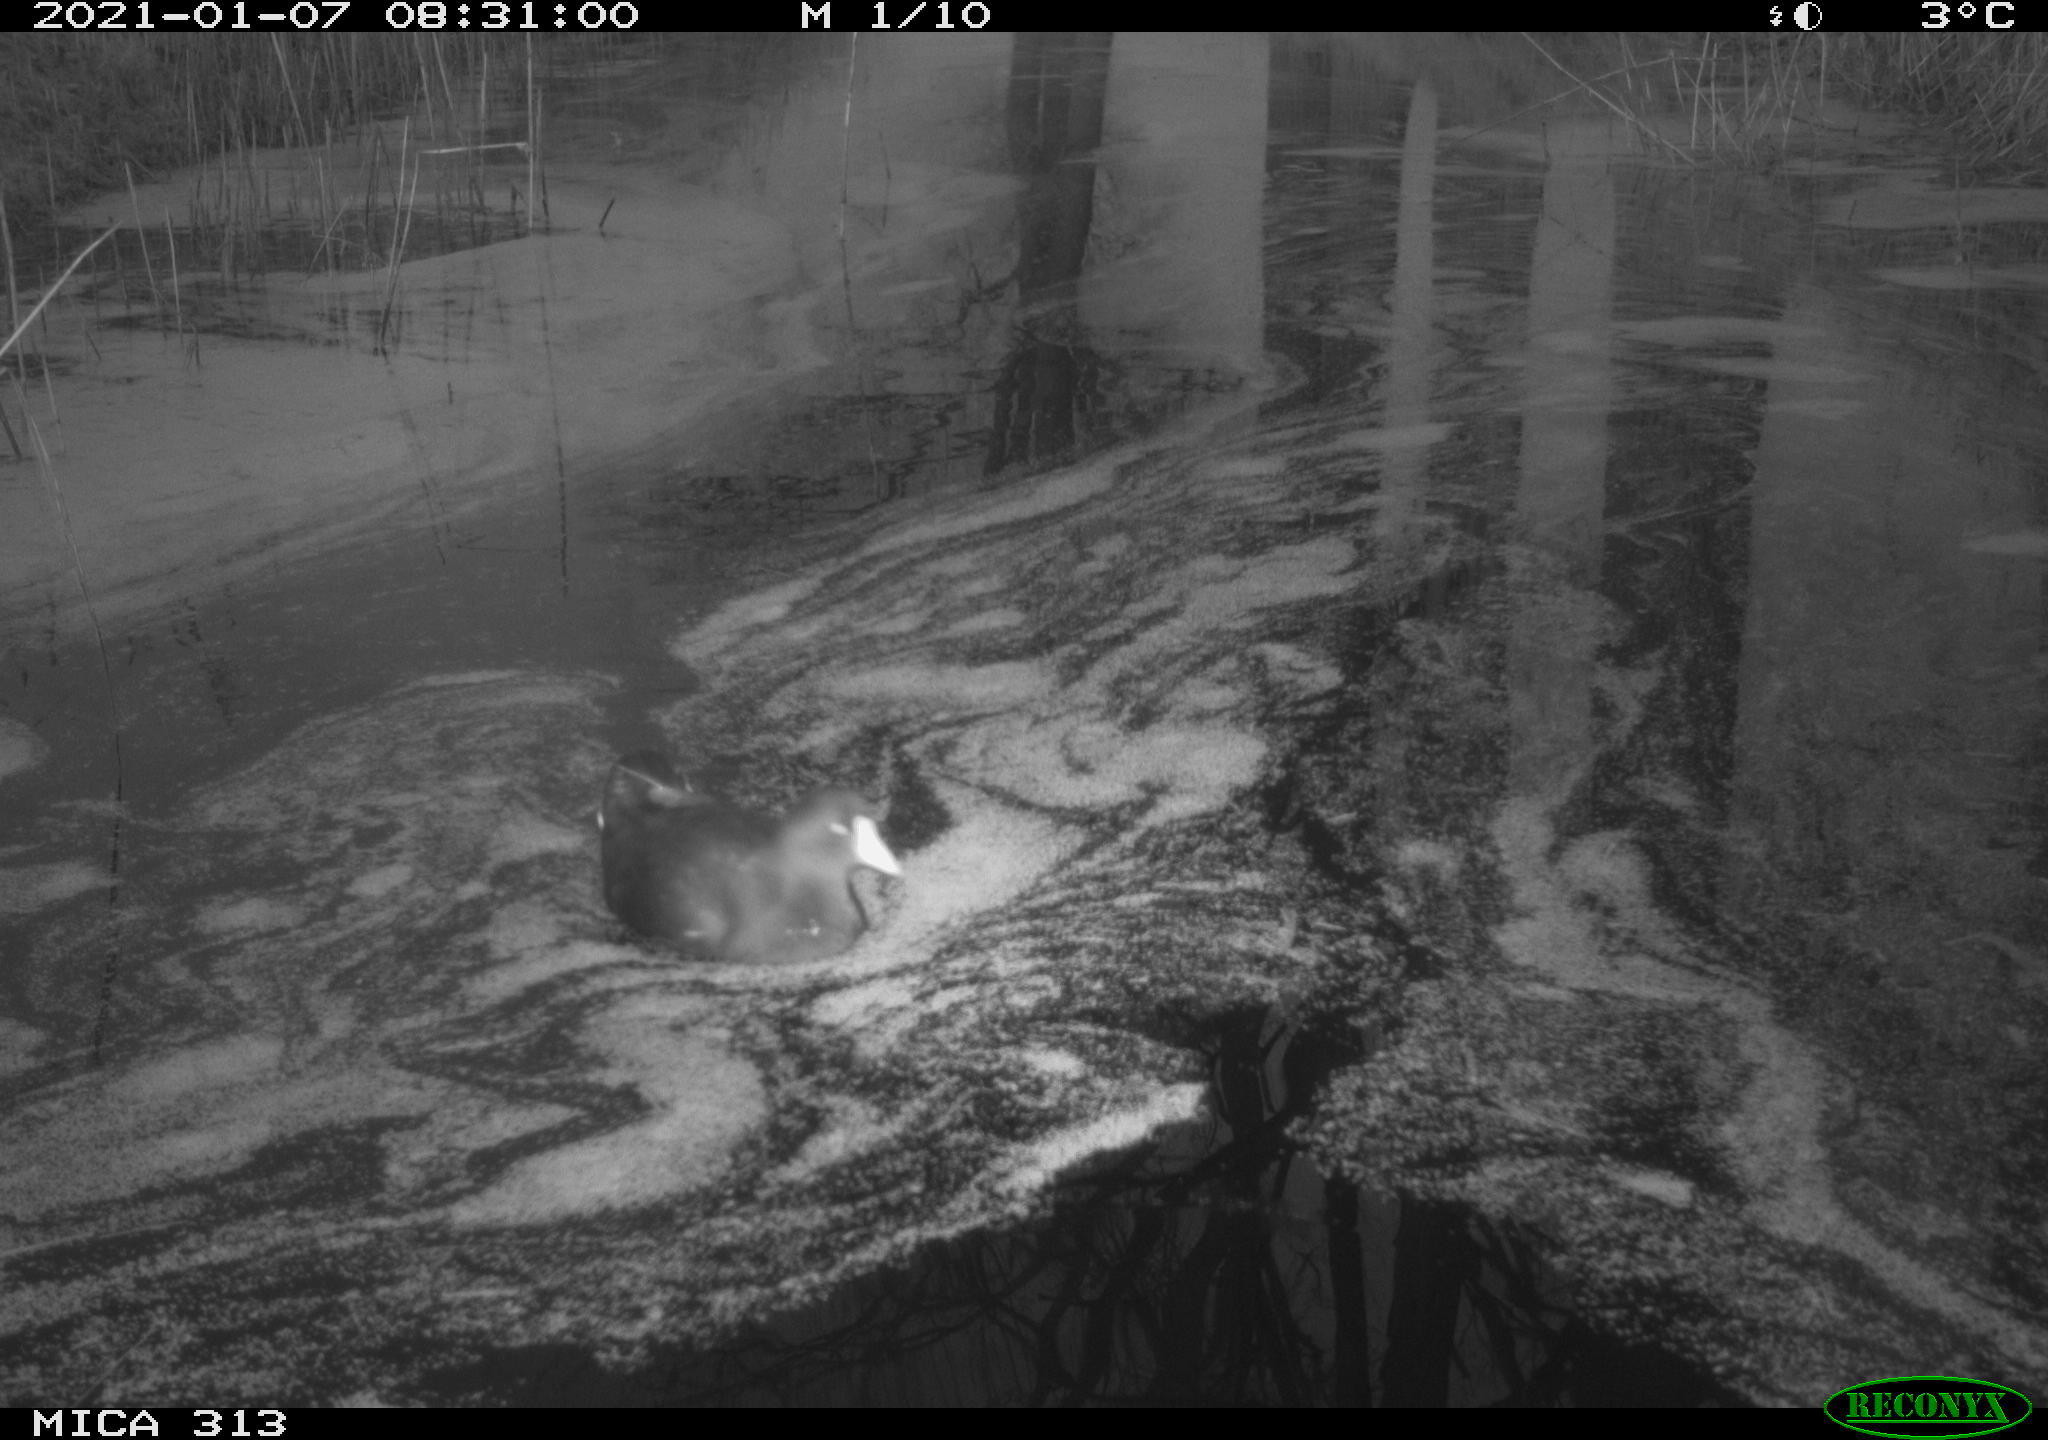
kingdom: Animalia
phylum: Chordata
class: Aves
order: Gruiformes
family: Rallidae
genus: Gallinula
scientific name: Gallinula chloropus
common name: Common moorhen
